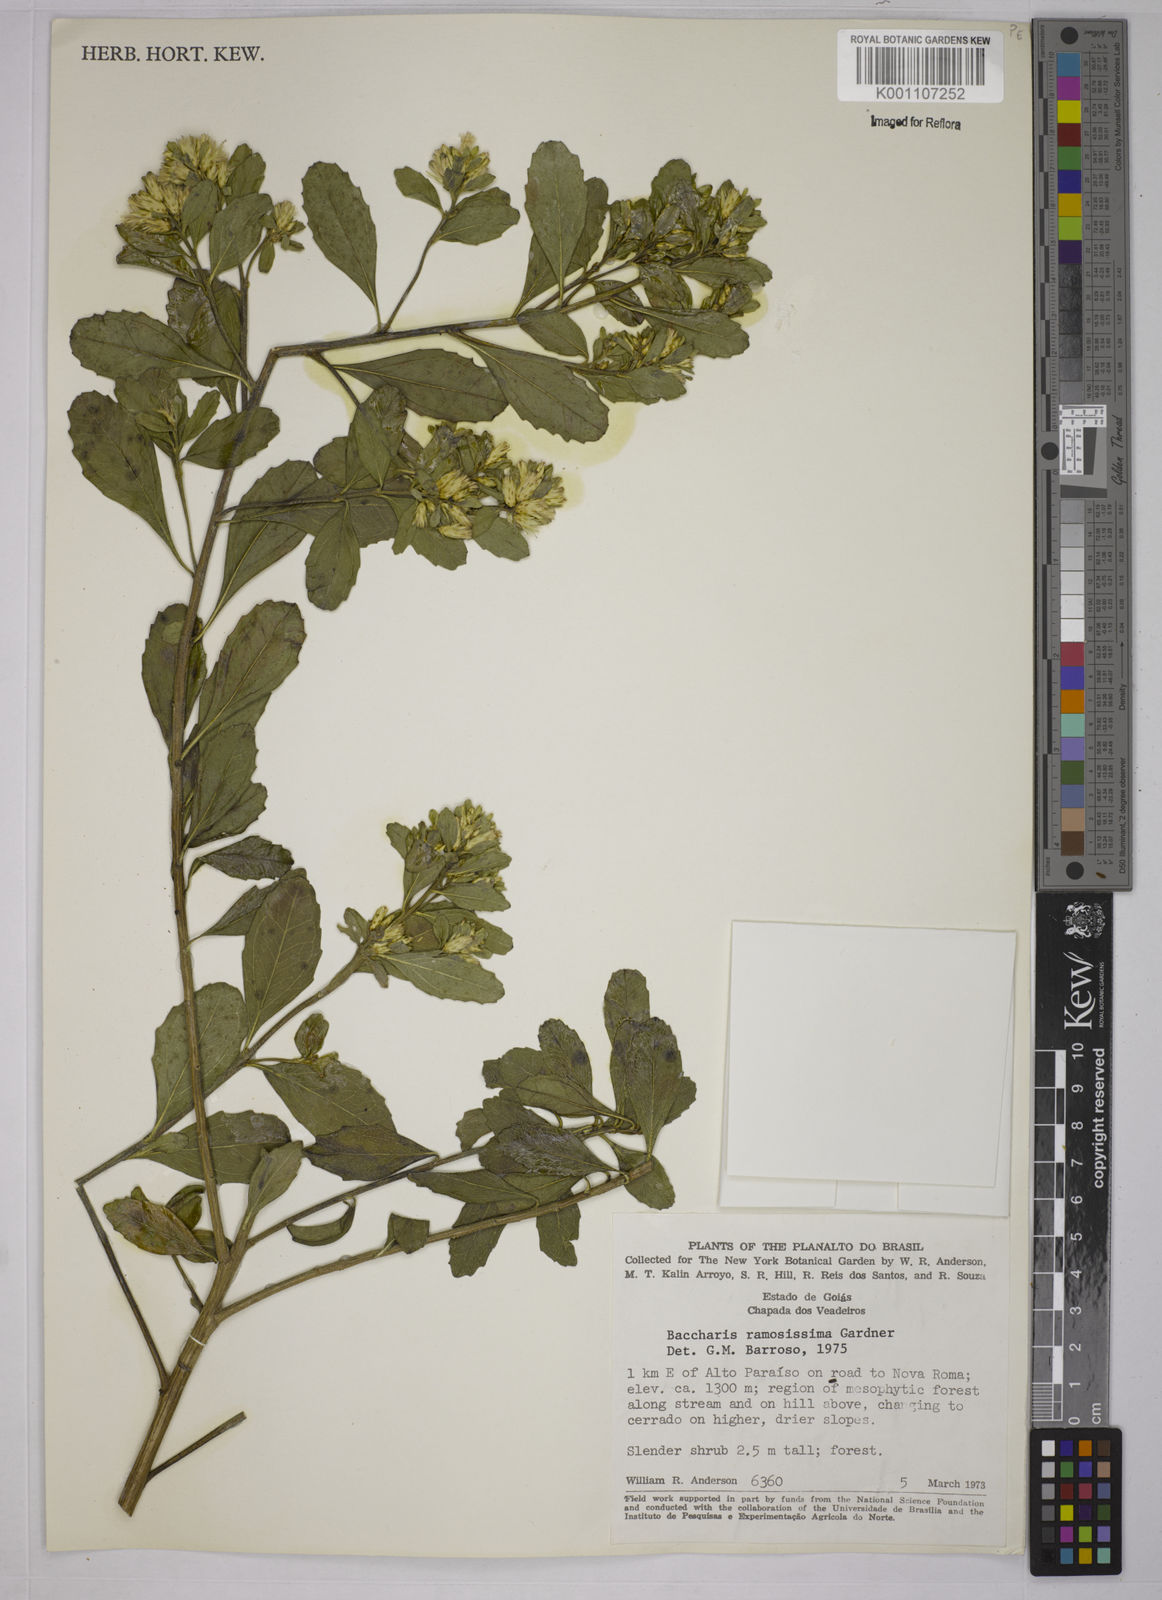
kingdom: Plantae
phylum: Tracheophyta
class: Magnoliopsida
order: Asterales
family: Asteraceae
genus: Baccharis
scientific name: Baccharis retusa
